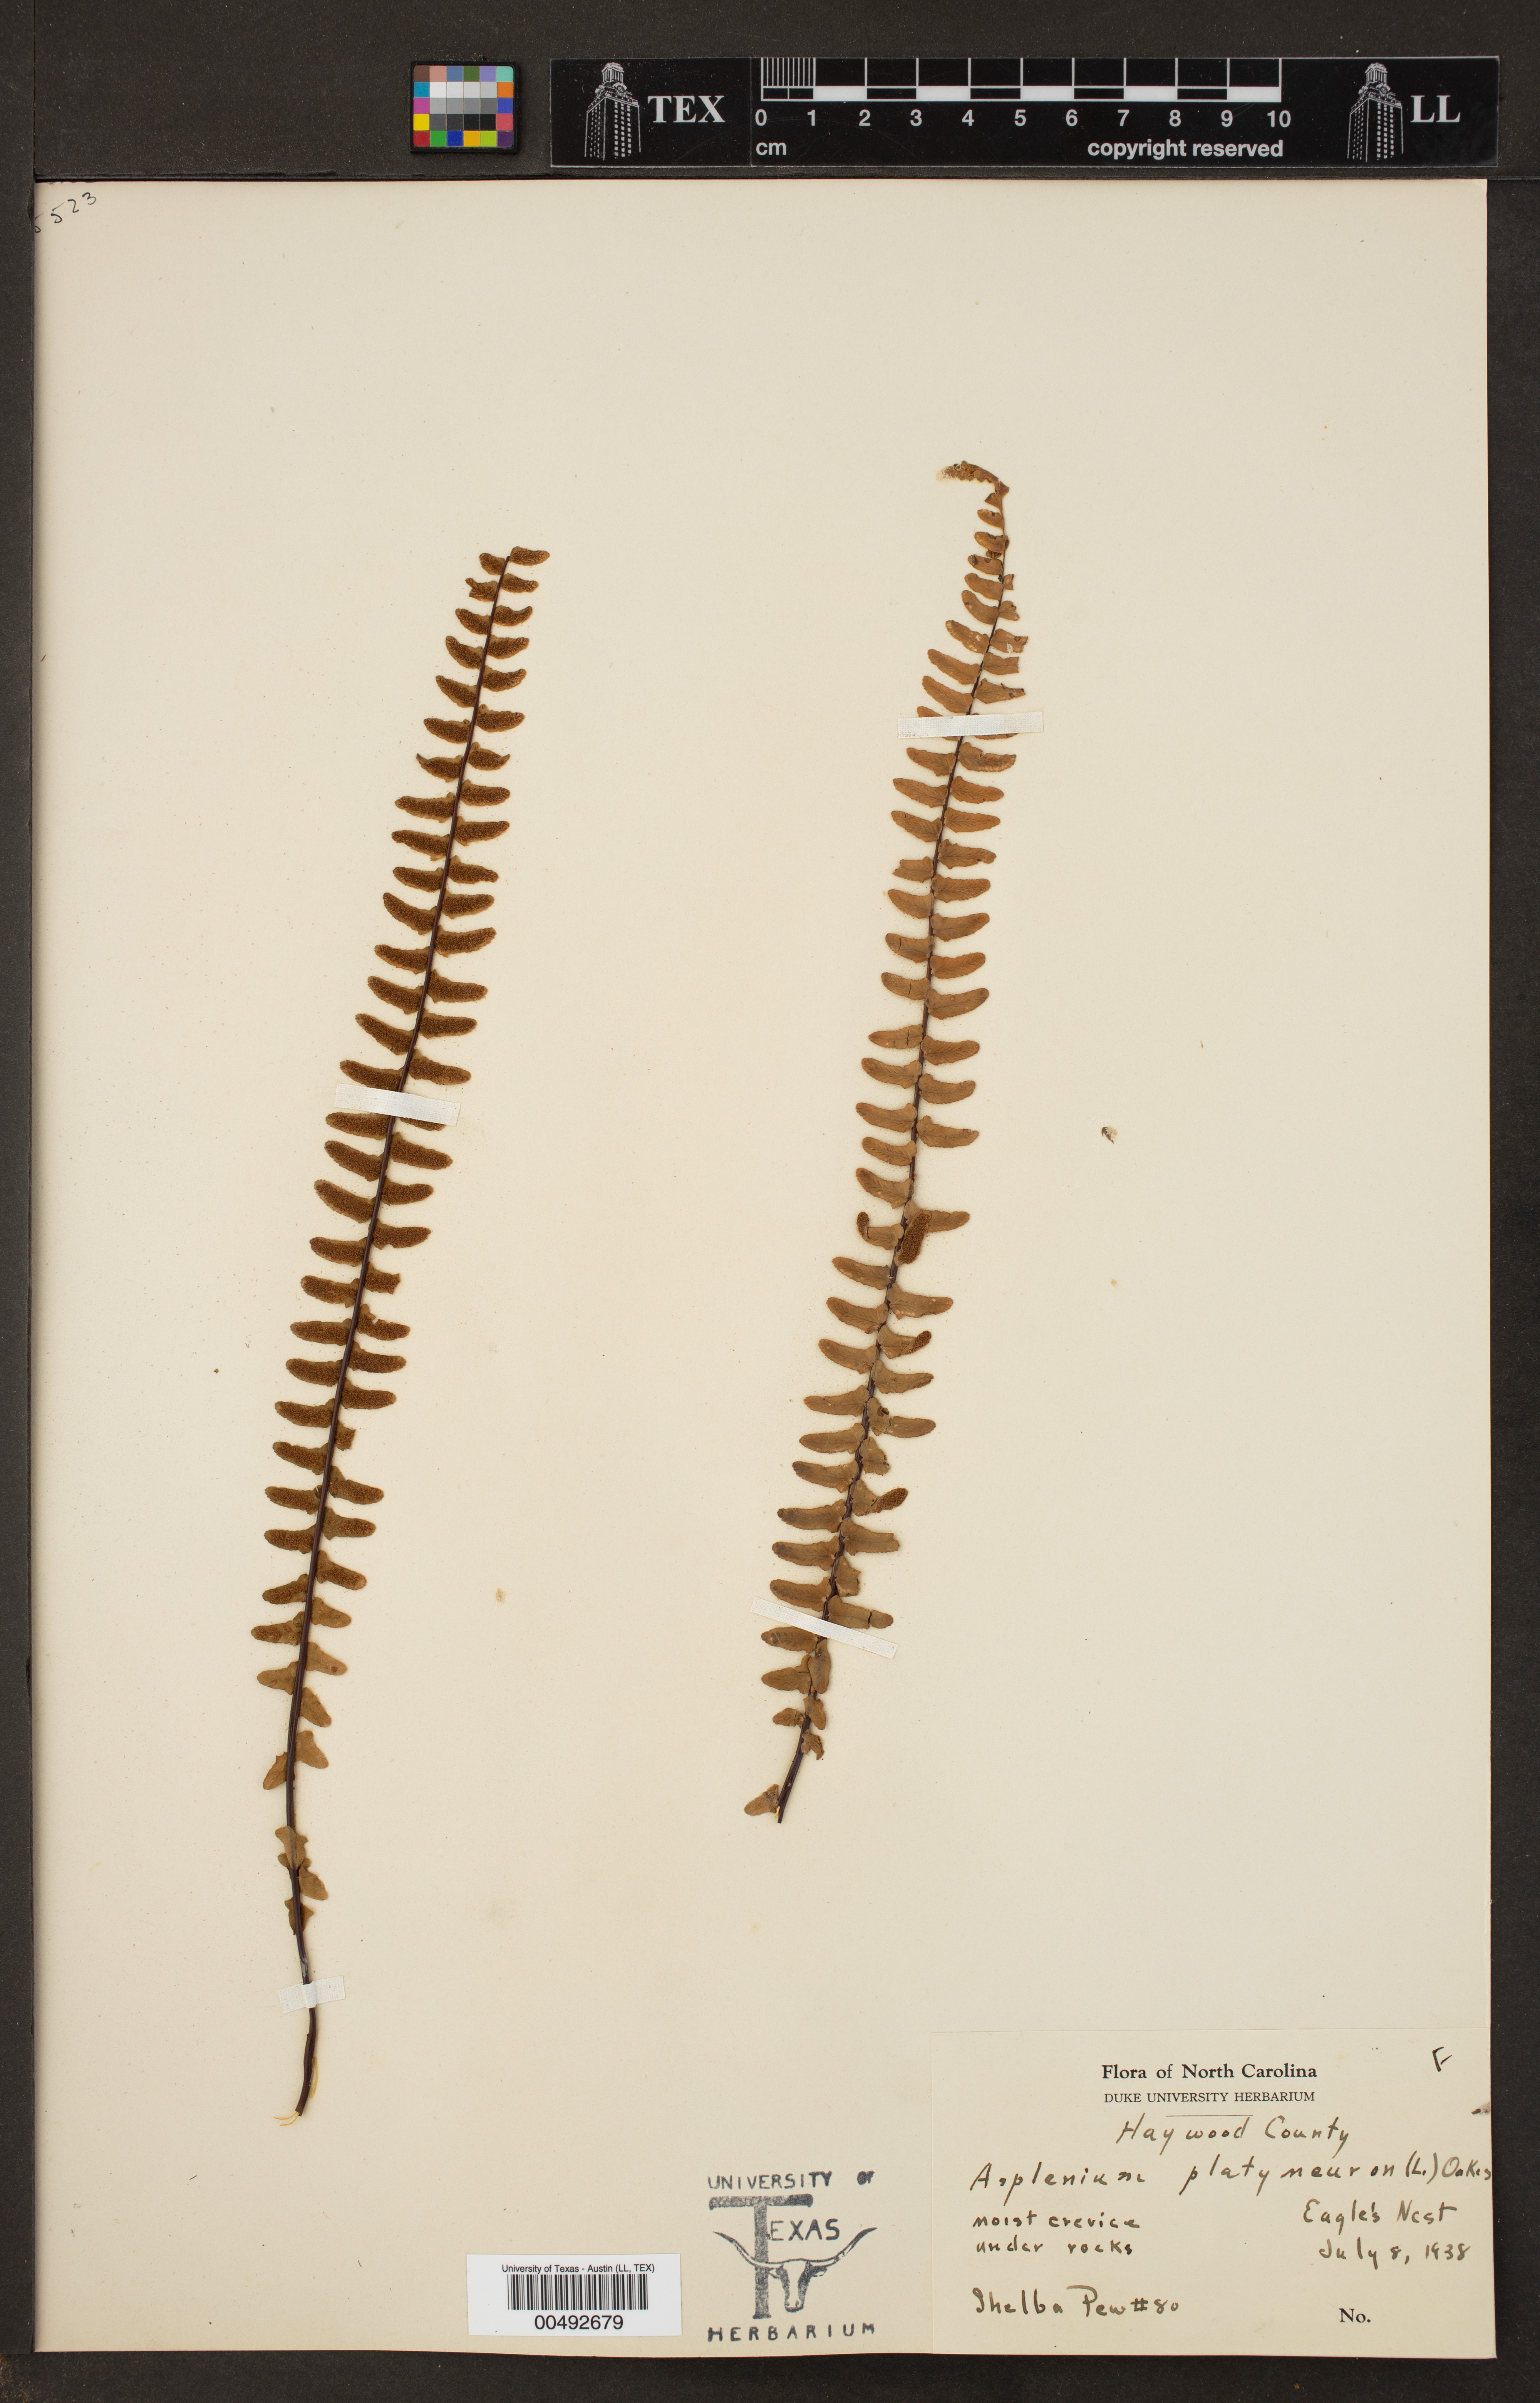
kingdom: Plantae
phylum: Tracheophyta
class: Polypodiopsida
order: Polypodiales
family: Aspleniaceae
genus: Asplenium
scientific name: Asplenium platyneuron
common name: Ebony spleenwort
